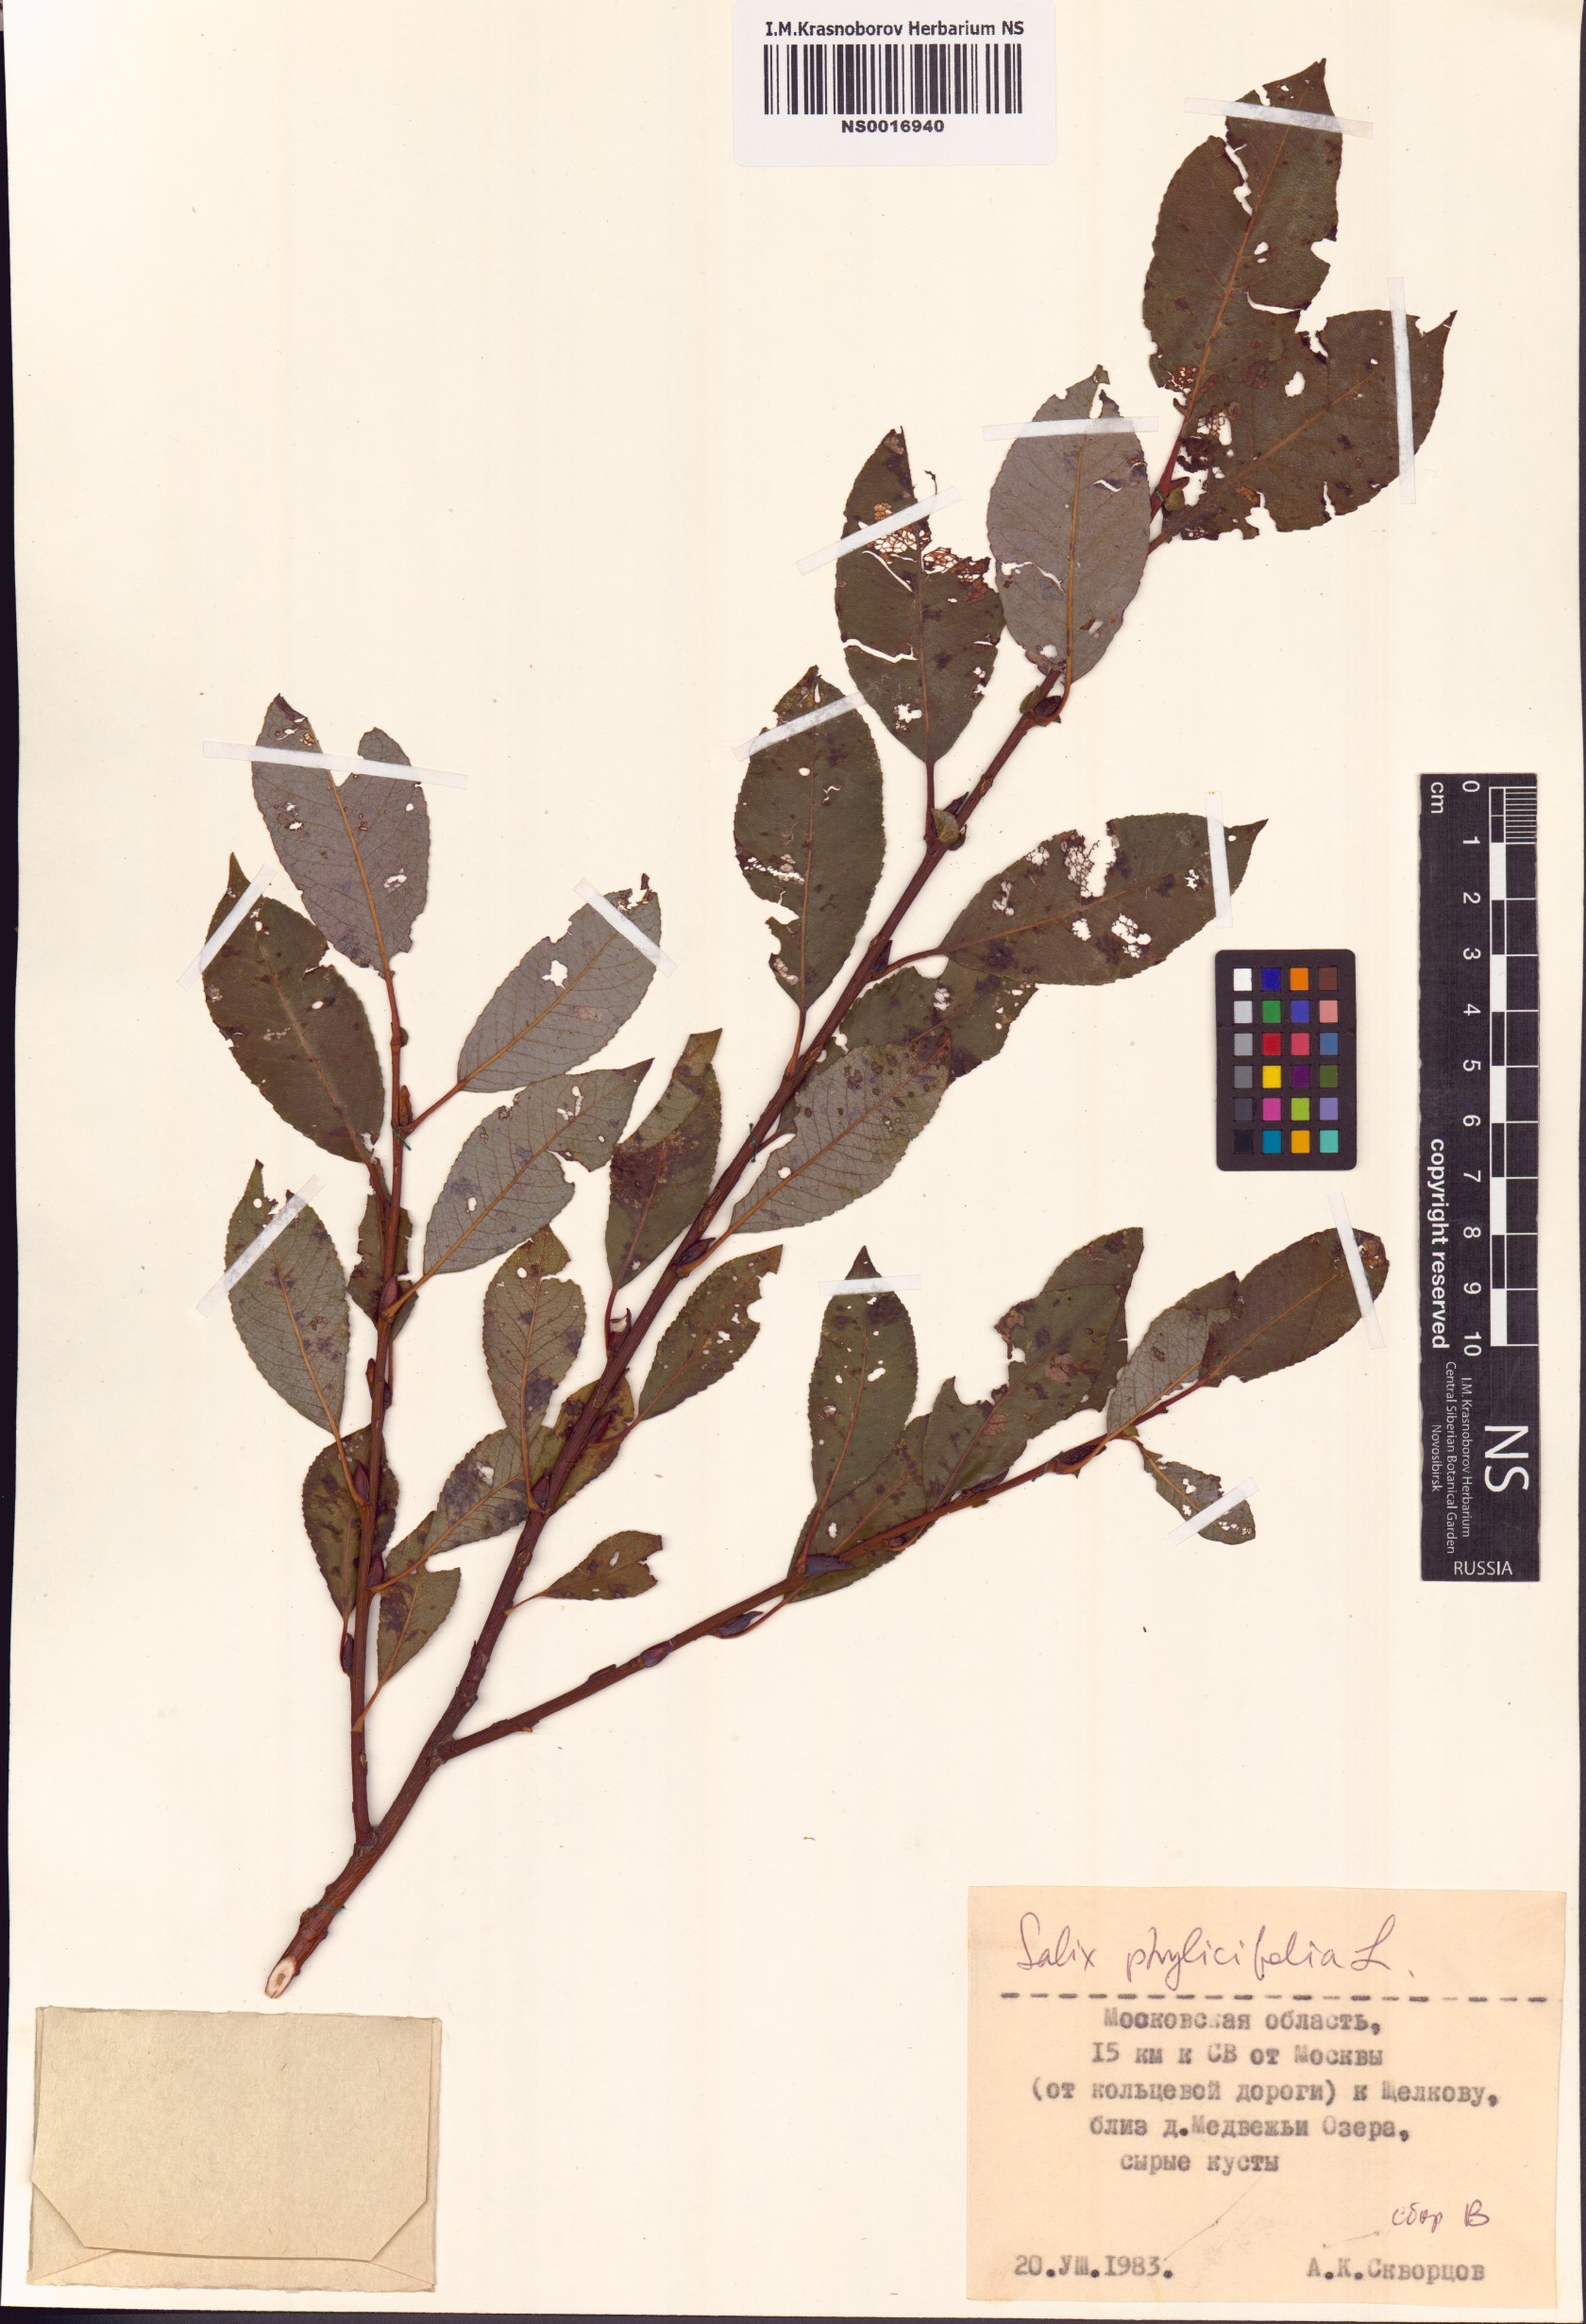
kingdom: Plantae
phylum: Tracheophyta
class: Magnoliopsida
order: Malpighiales
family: Salicaceae
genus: Salix
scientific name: Salix phylicifolia
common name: Tea-leaved willow
